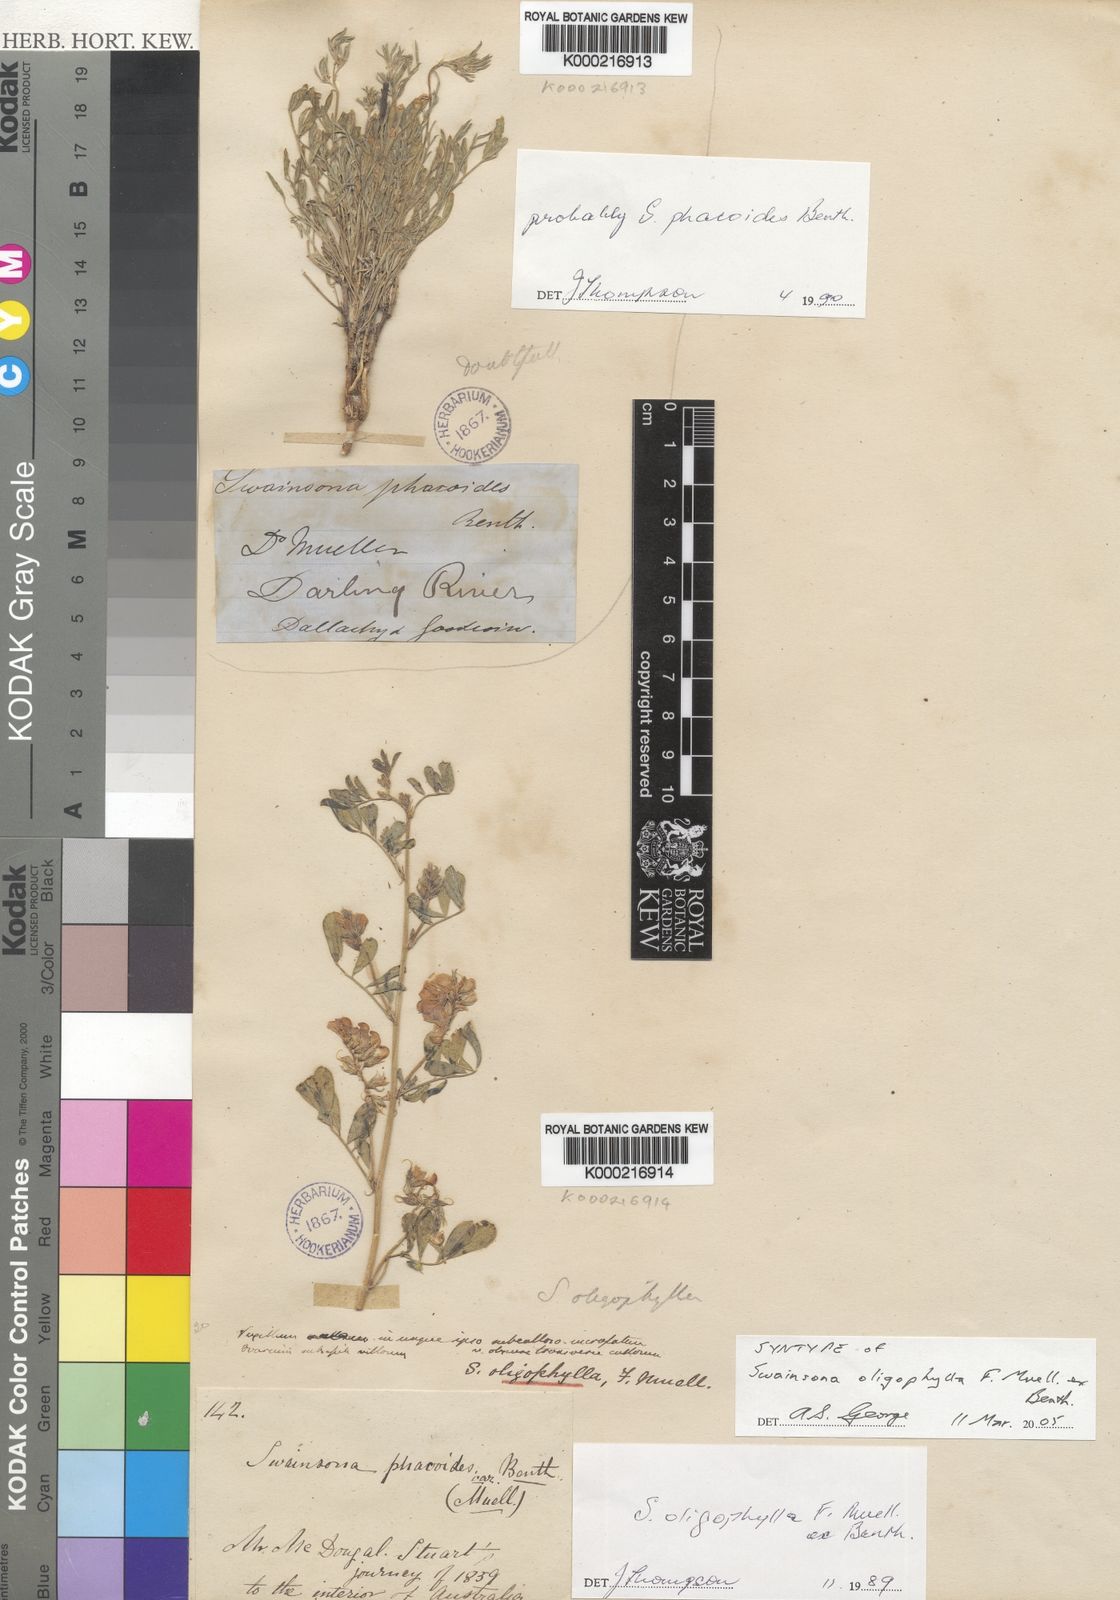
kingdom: Plantae
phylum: Tracheophyta
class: Magnoliopsida
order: Fabales
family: Fabaceae
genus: Swainsona
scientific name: Swainsona oligophylla
